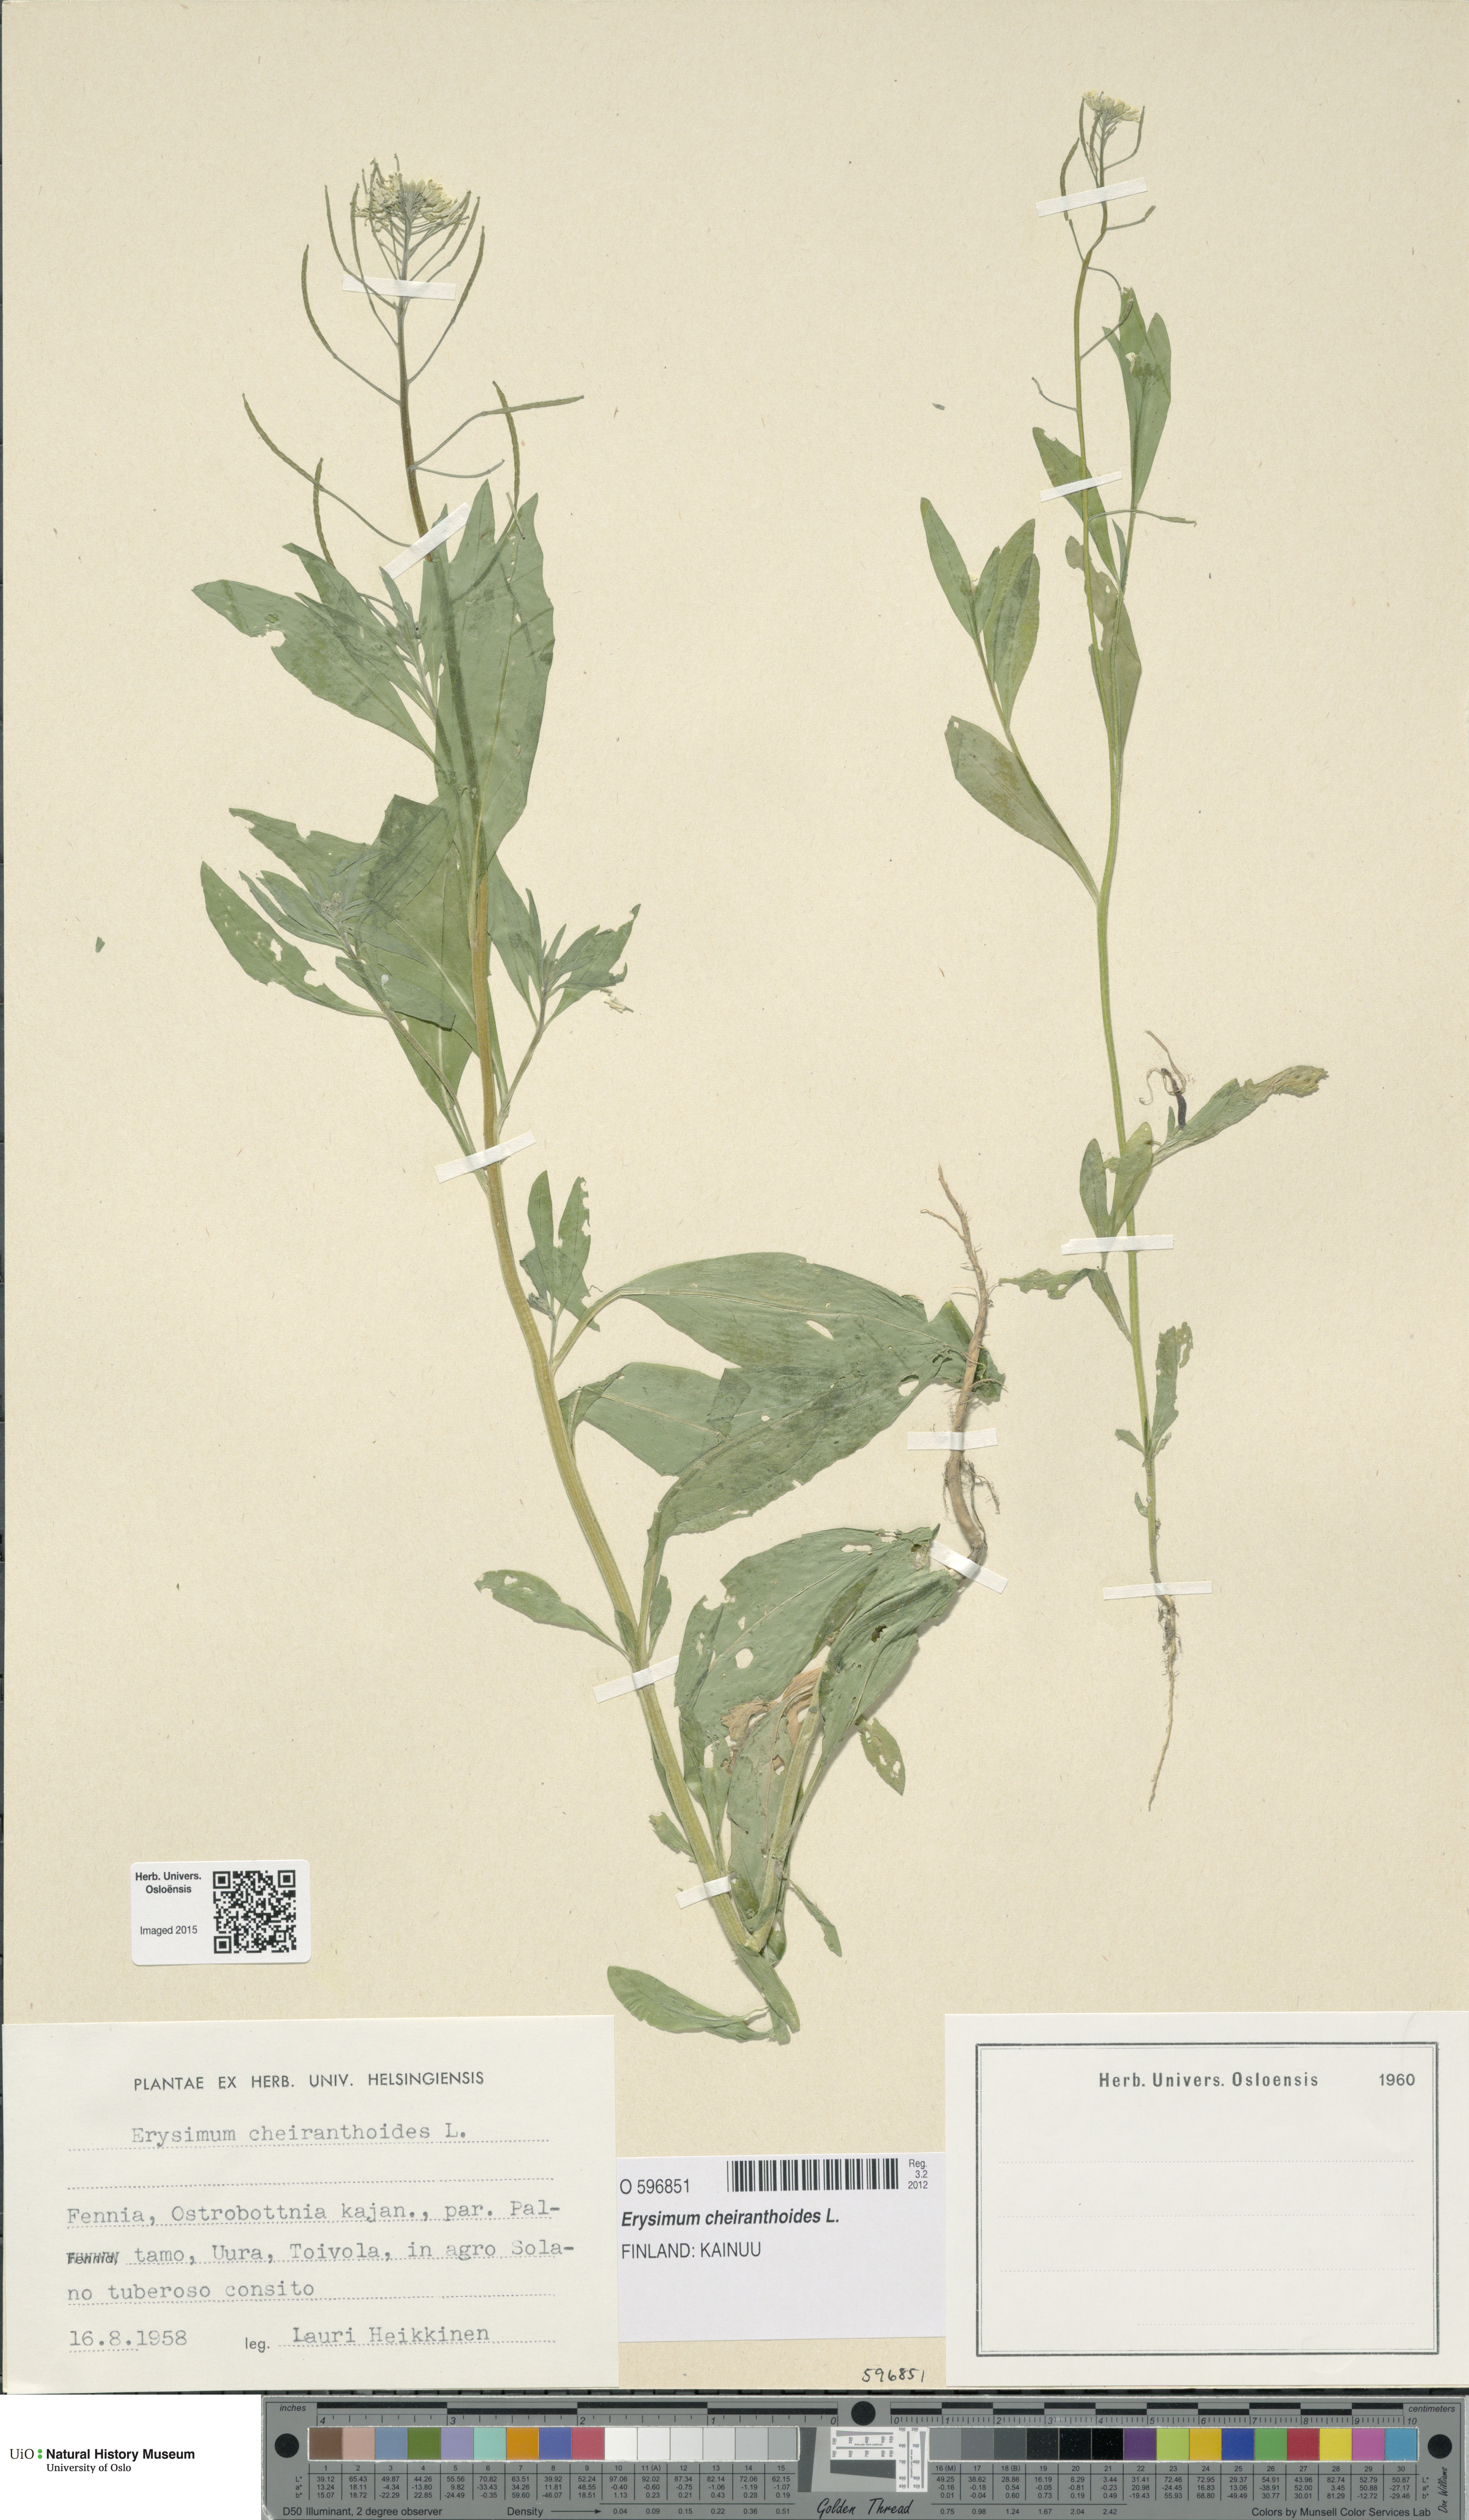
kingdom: Plantae
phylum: Tracheophyta
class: Magnoliopsida
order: Brassicales
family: Brassicaceae
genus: Erysimum
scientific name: Erysimum cheiranthoides
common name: Treacle mustard
